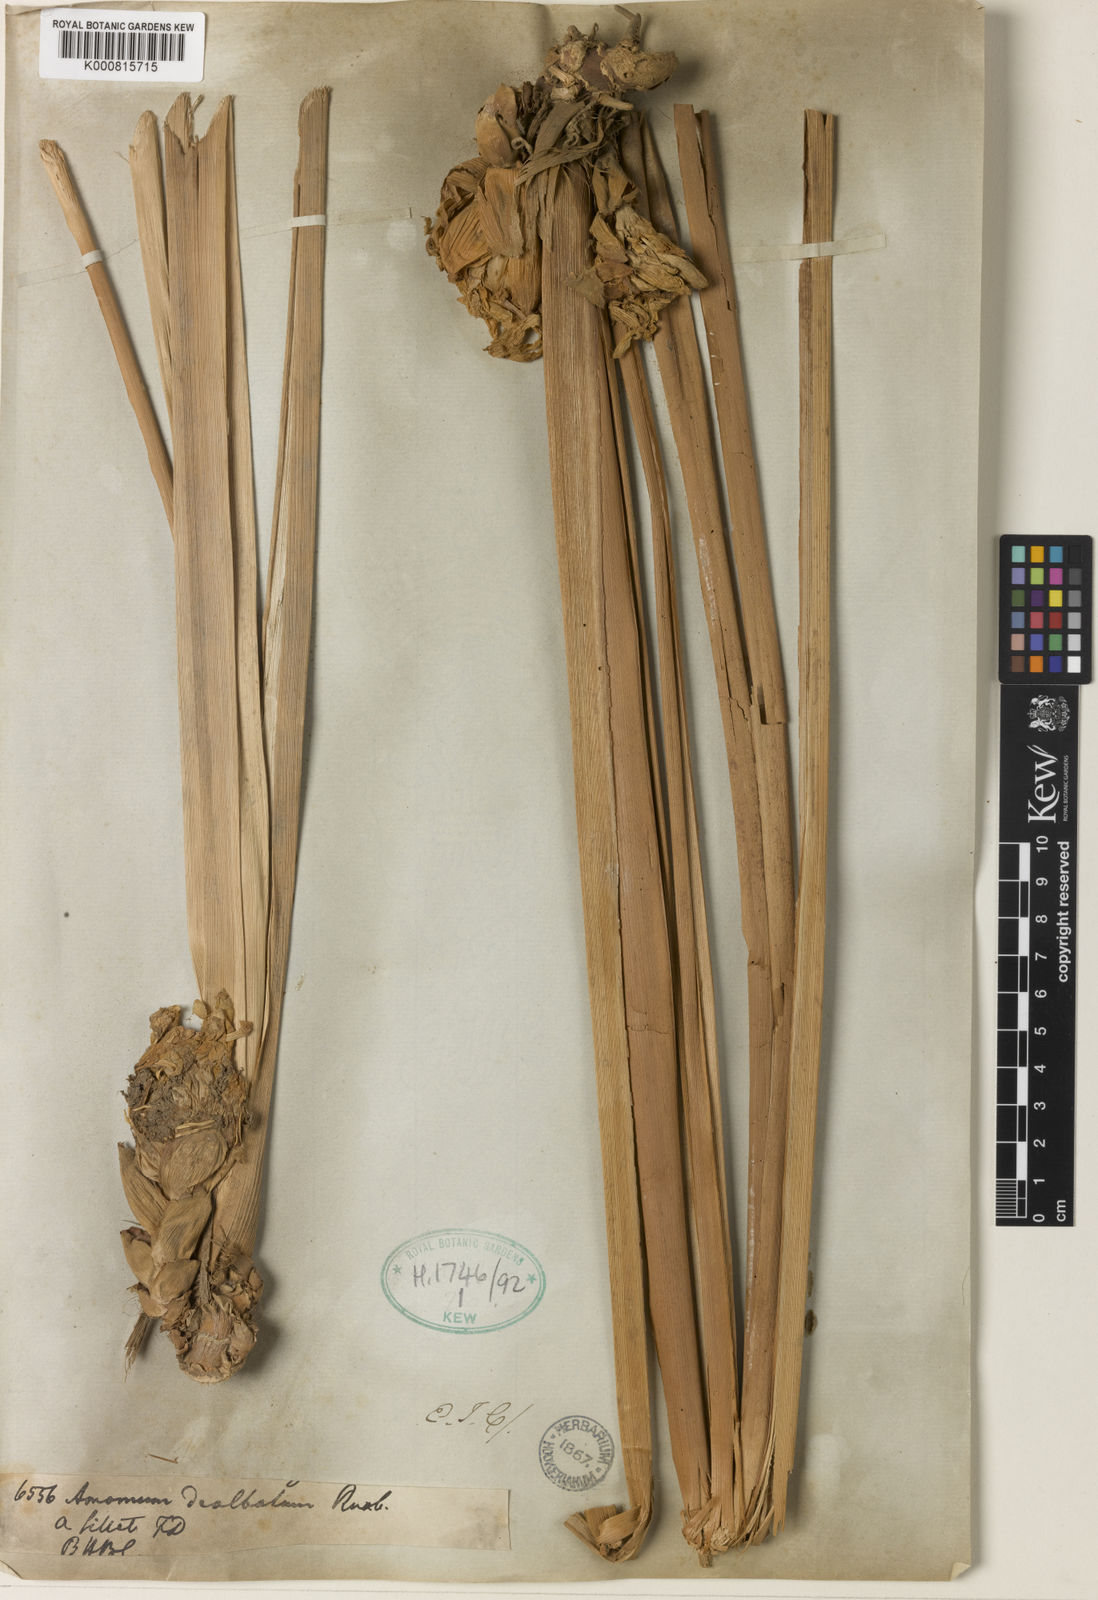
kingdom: Plantae
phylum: Tracheophyta
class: Liliopsida
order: Zingiberales
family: Zingiberaceae
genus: Amomum
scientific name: Amomum dealbatum
